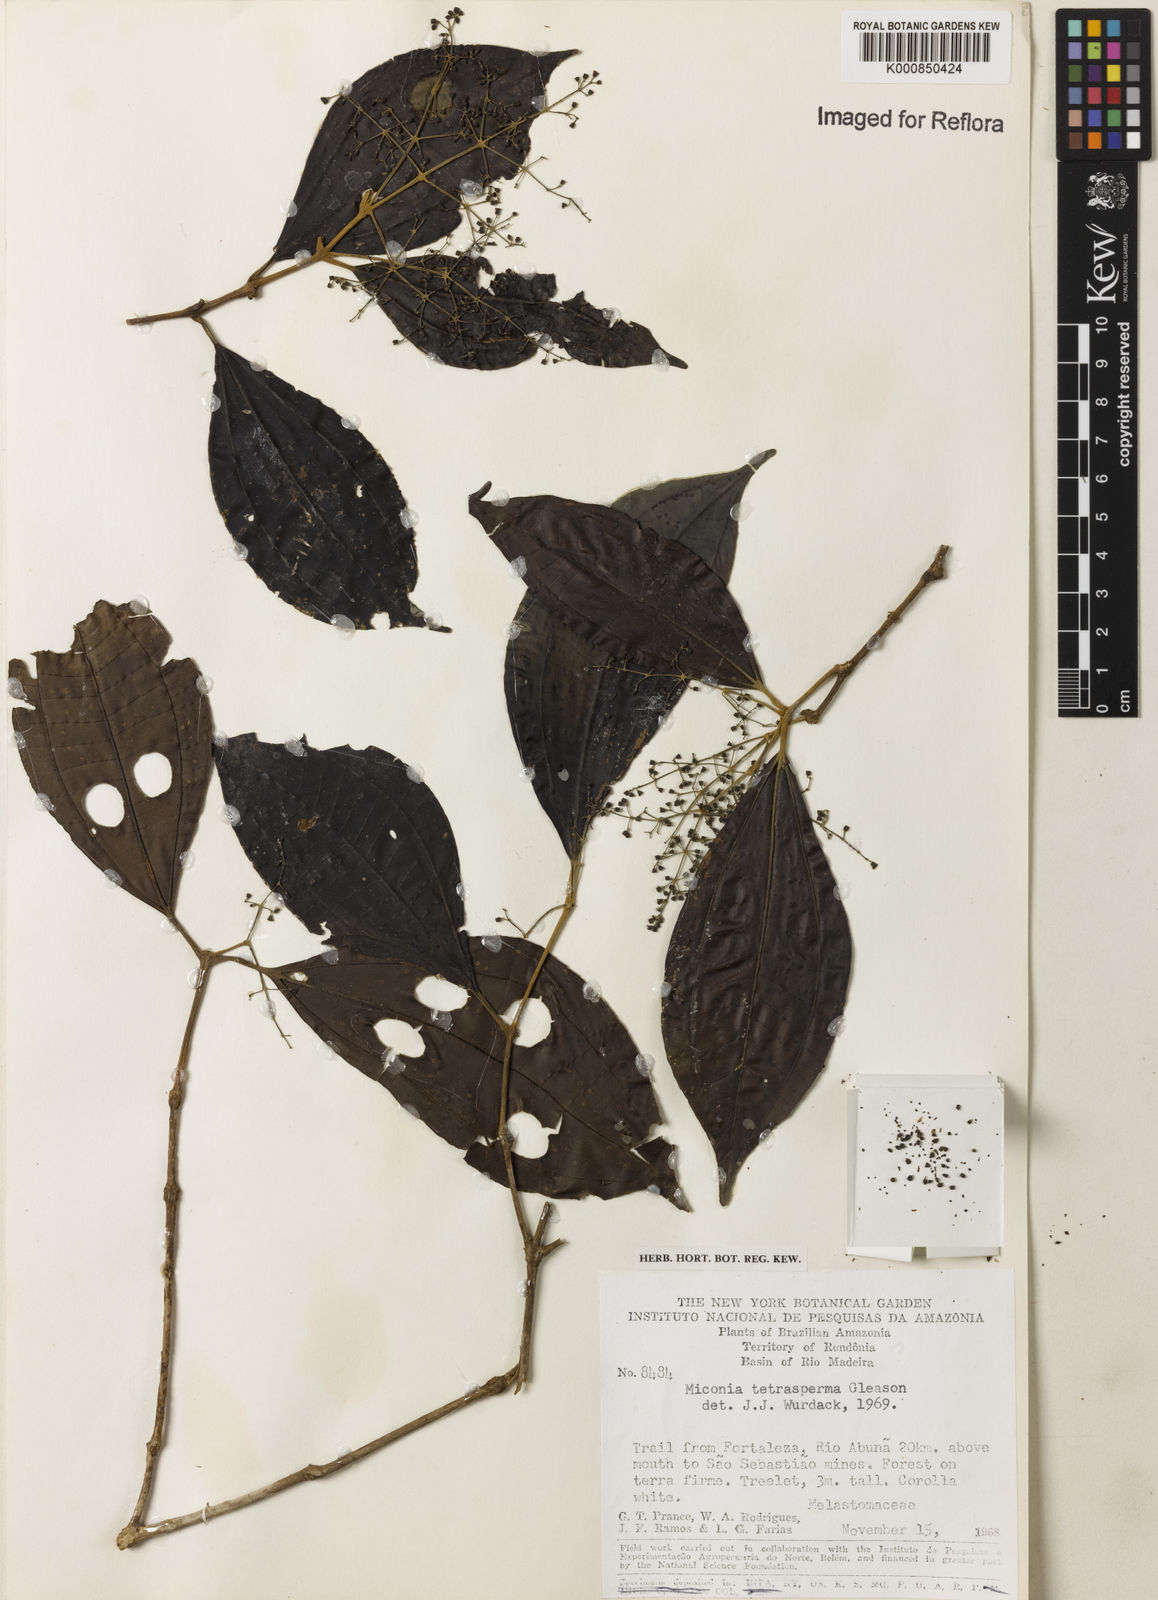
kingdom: Plantae
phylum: Tracheophyta
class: Magnoliopsida
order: Myrtales
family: Melastomataceae
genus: Miconia
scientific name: Miconia tetrasperma
